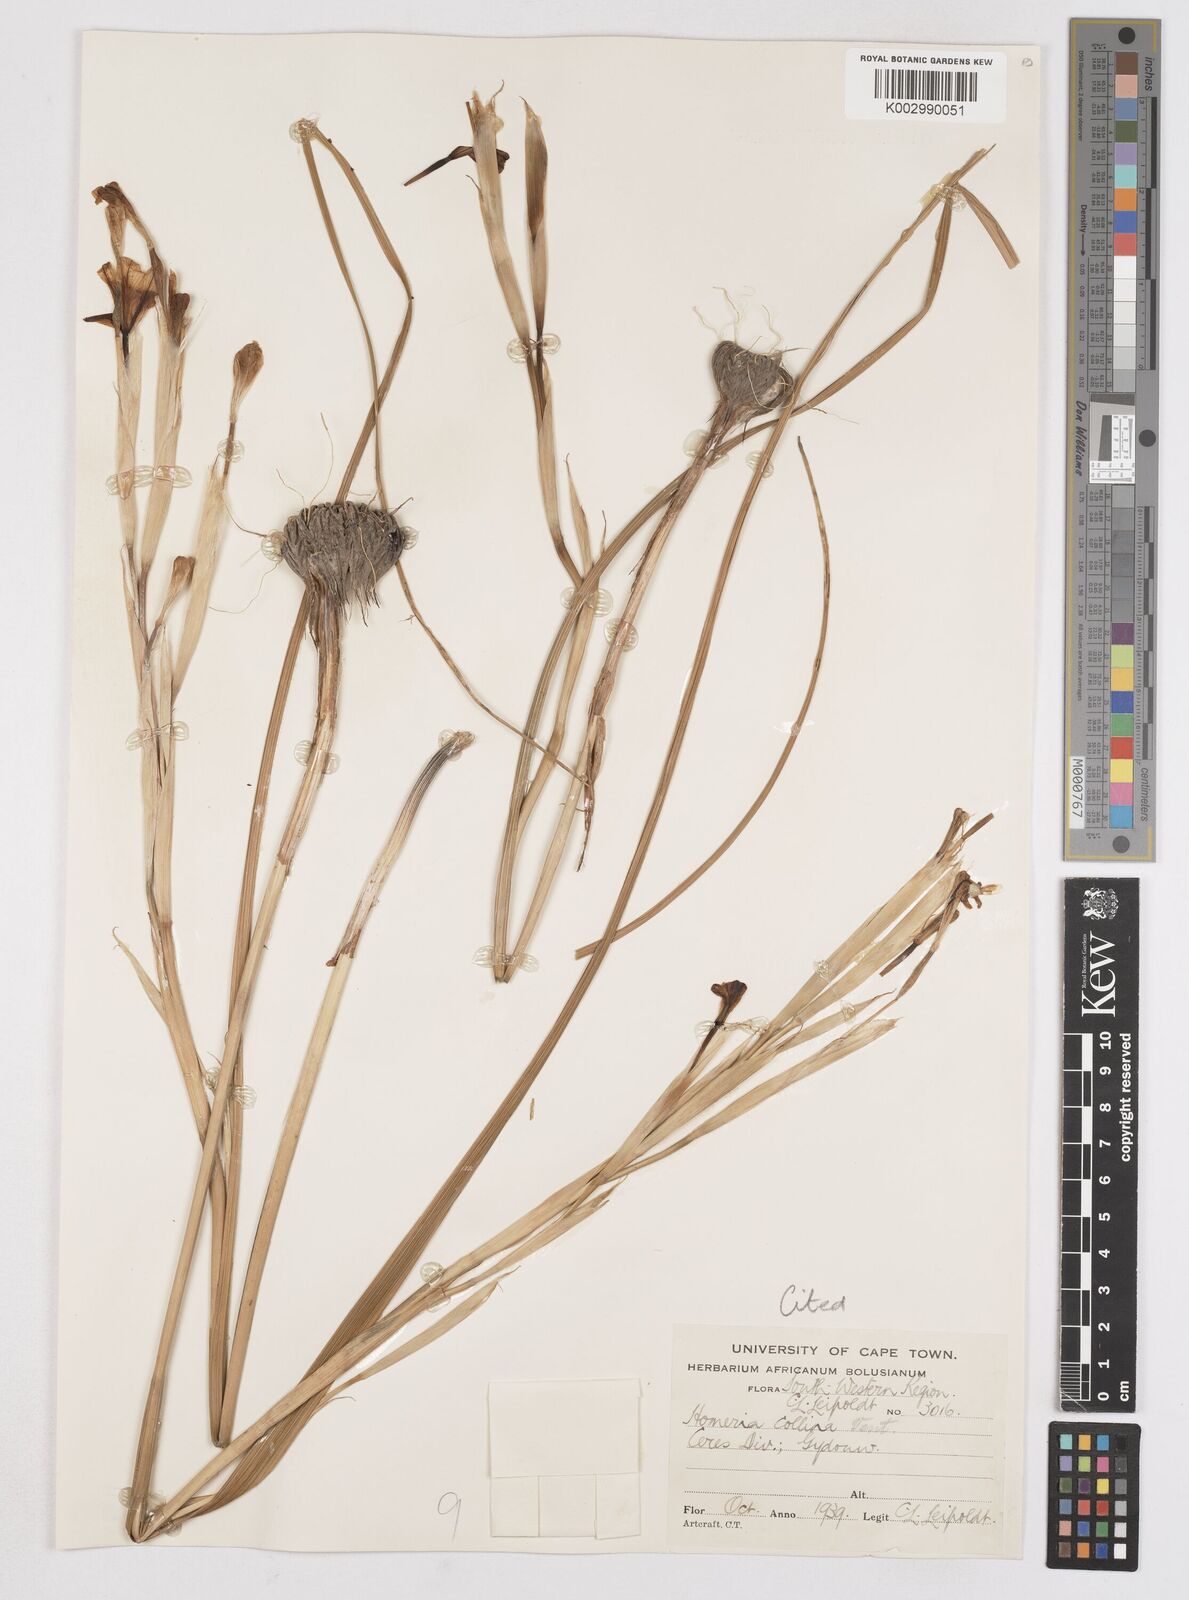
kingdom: Plantae
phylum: Tracheophyta
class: Liliopsida
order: Asparagales
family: Iridaceae
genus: Moraea
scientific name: Moraea ochroleuca
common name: Red tulp
